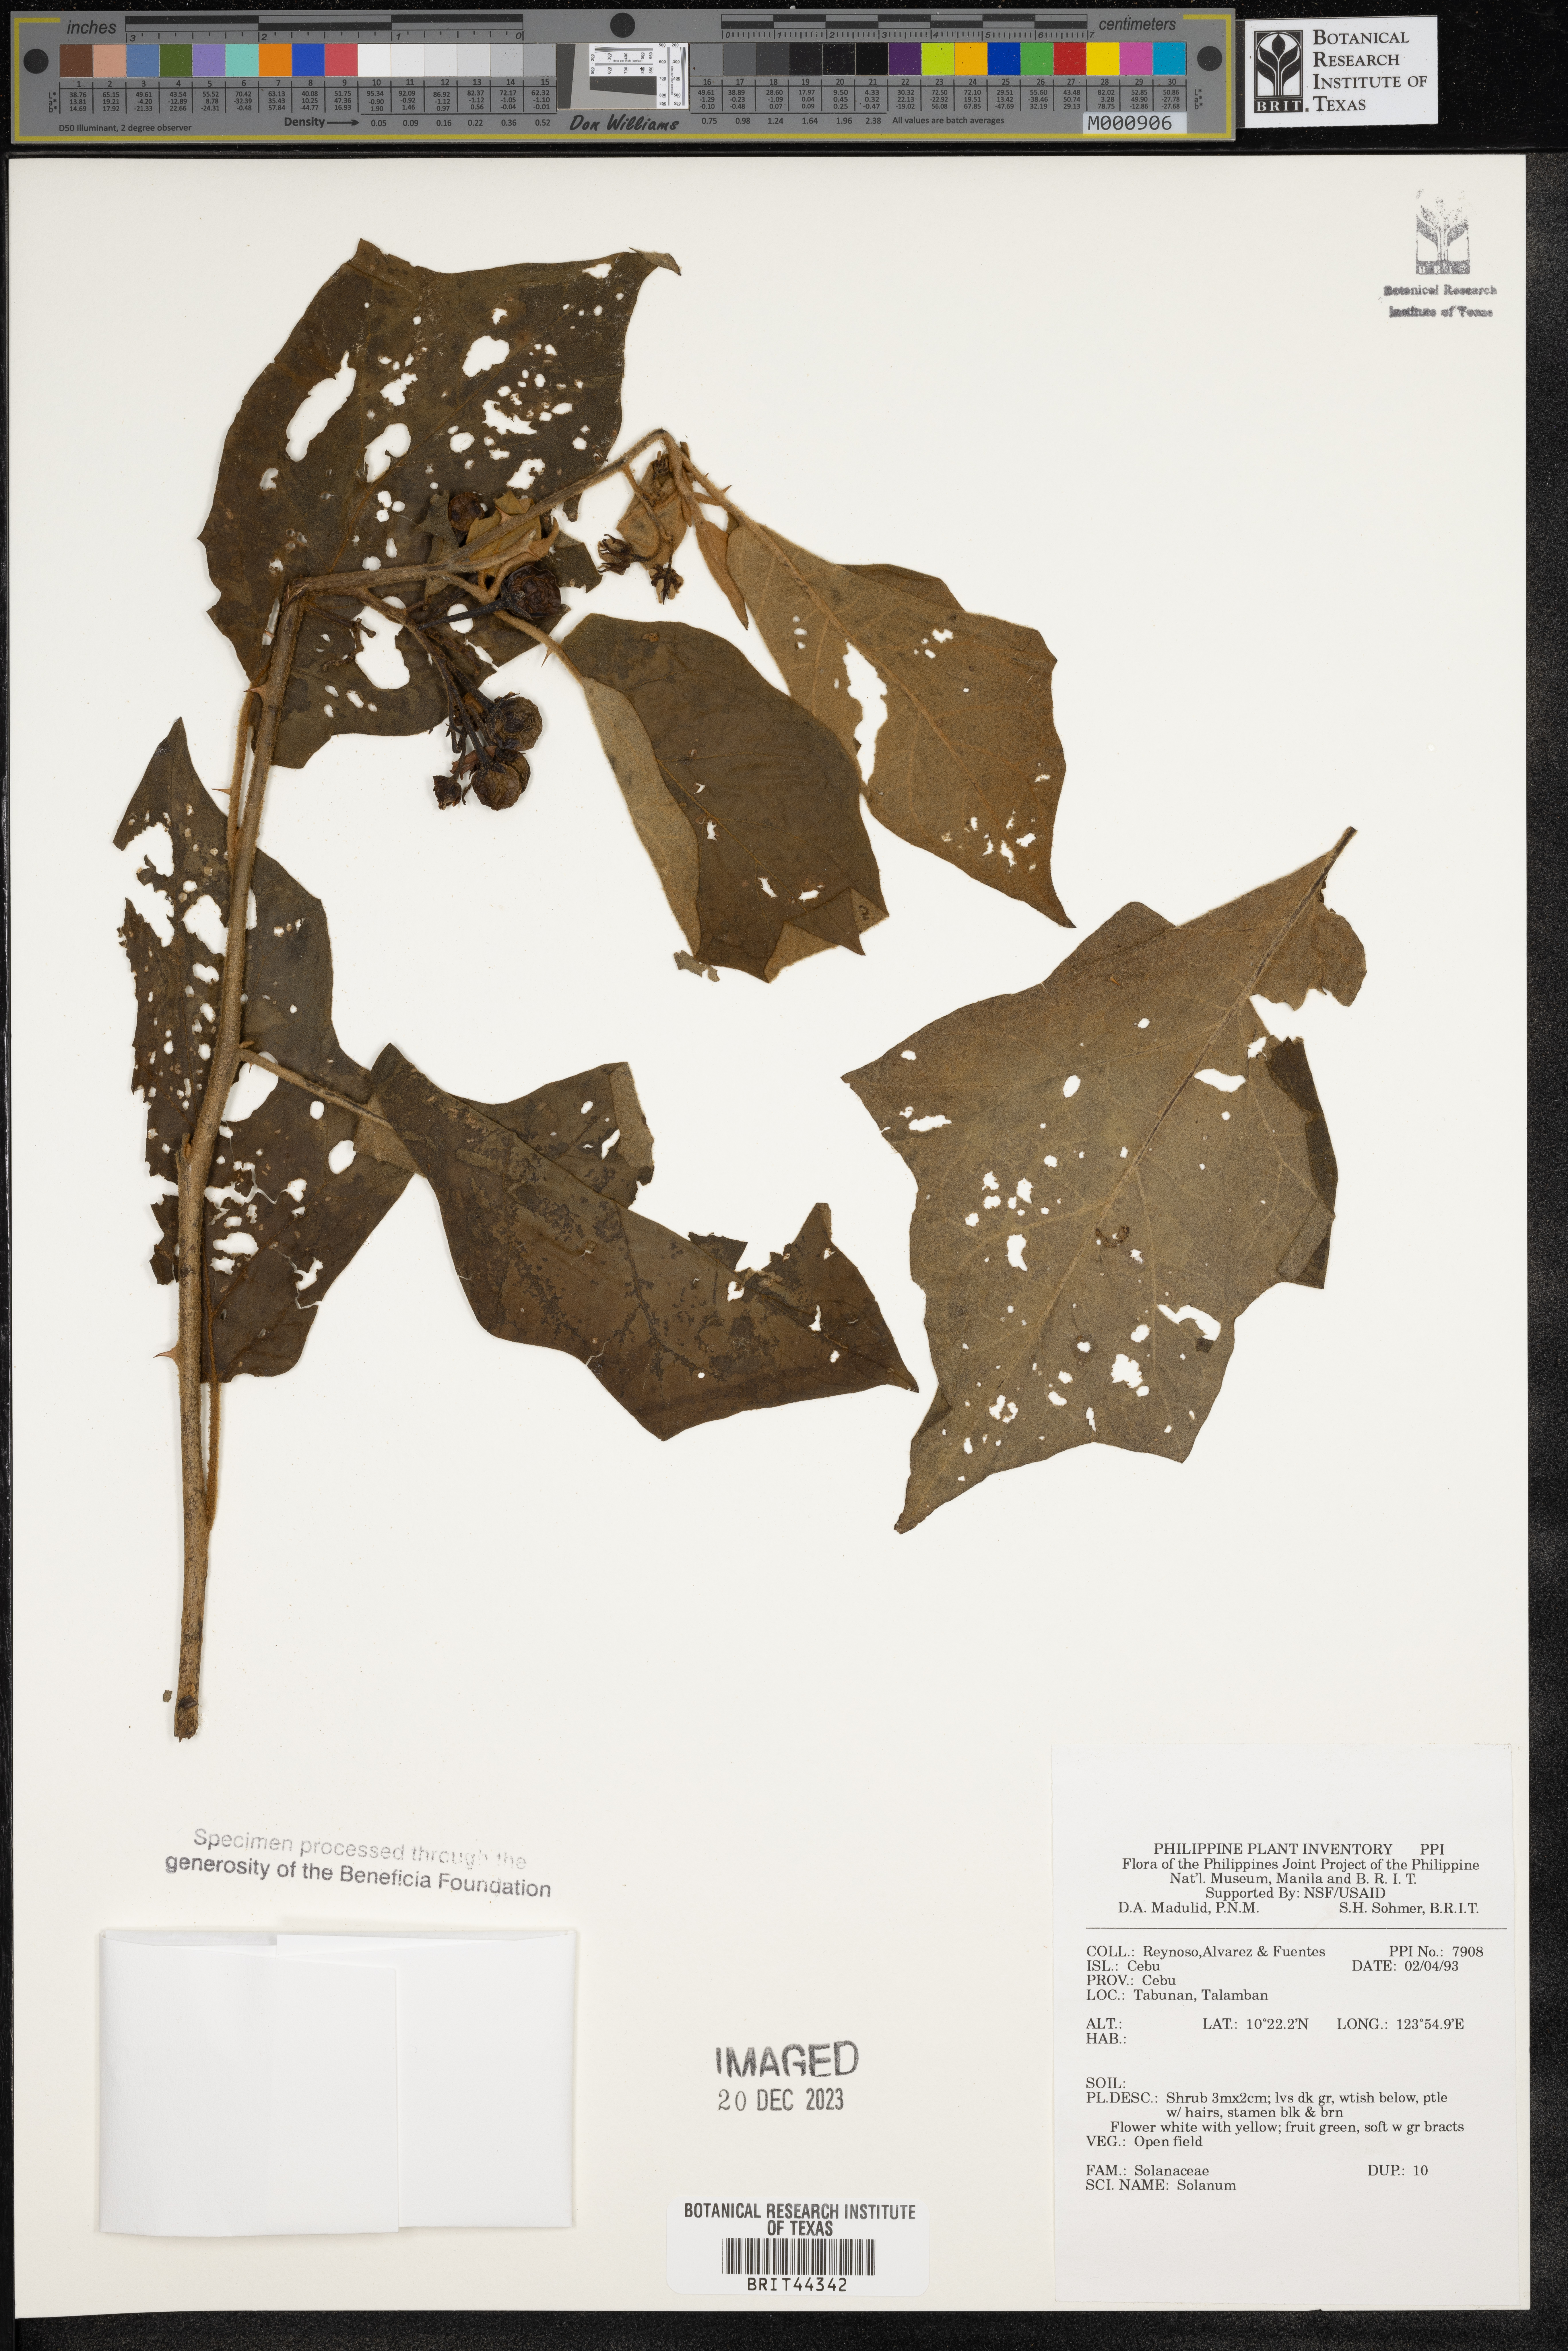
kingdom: Plantae
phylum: Tracheophyta
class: Magnoliopsida
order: Solanales
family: Solanaceae
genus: Solanum
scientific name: Solanum
